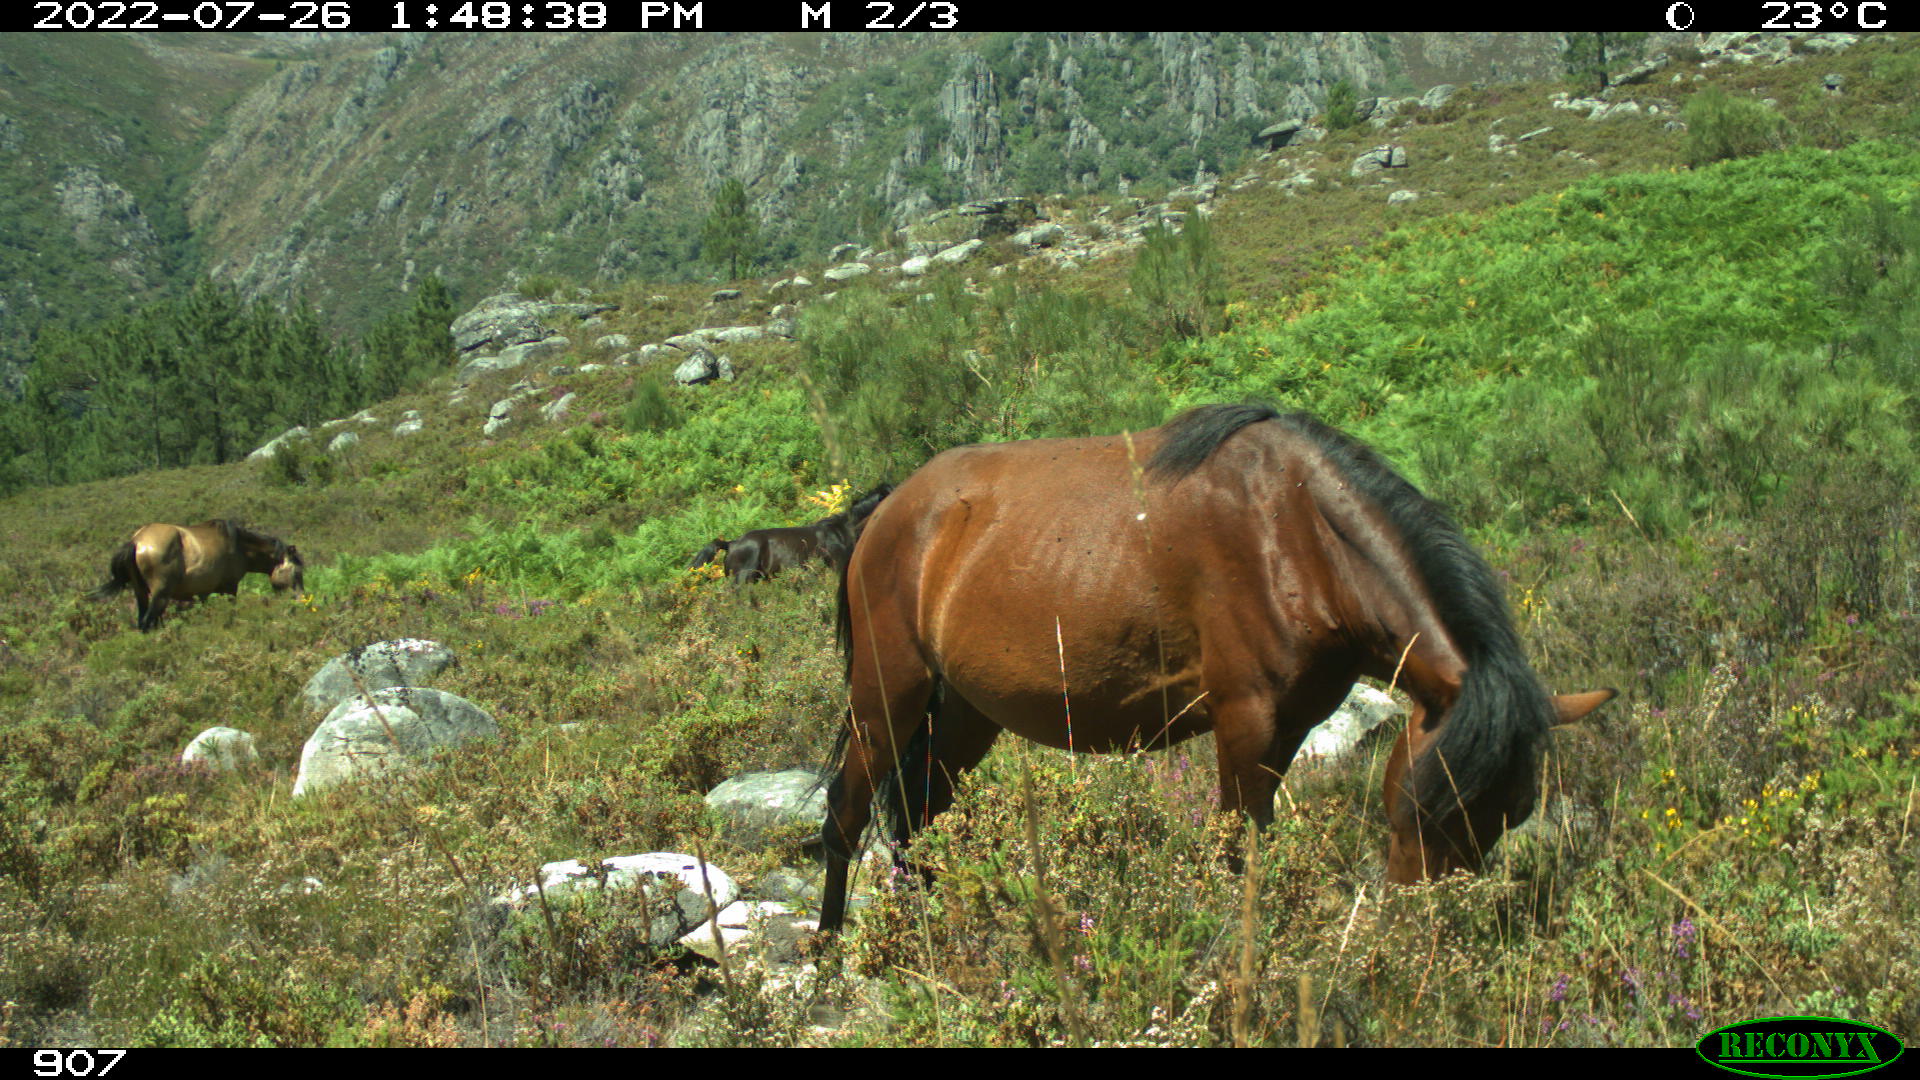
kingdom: Animalia
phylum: Chordata
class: Mammalia
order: Perissodactyla
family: Equidae
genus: Equus
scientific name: Equus caballus
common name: Horse
